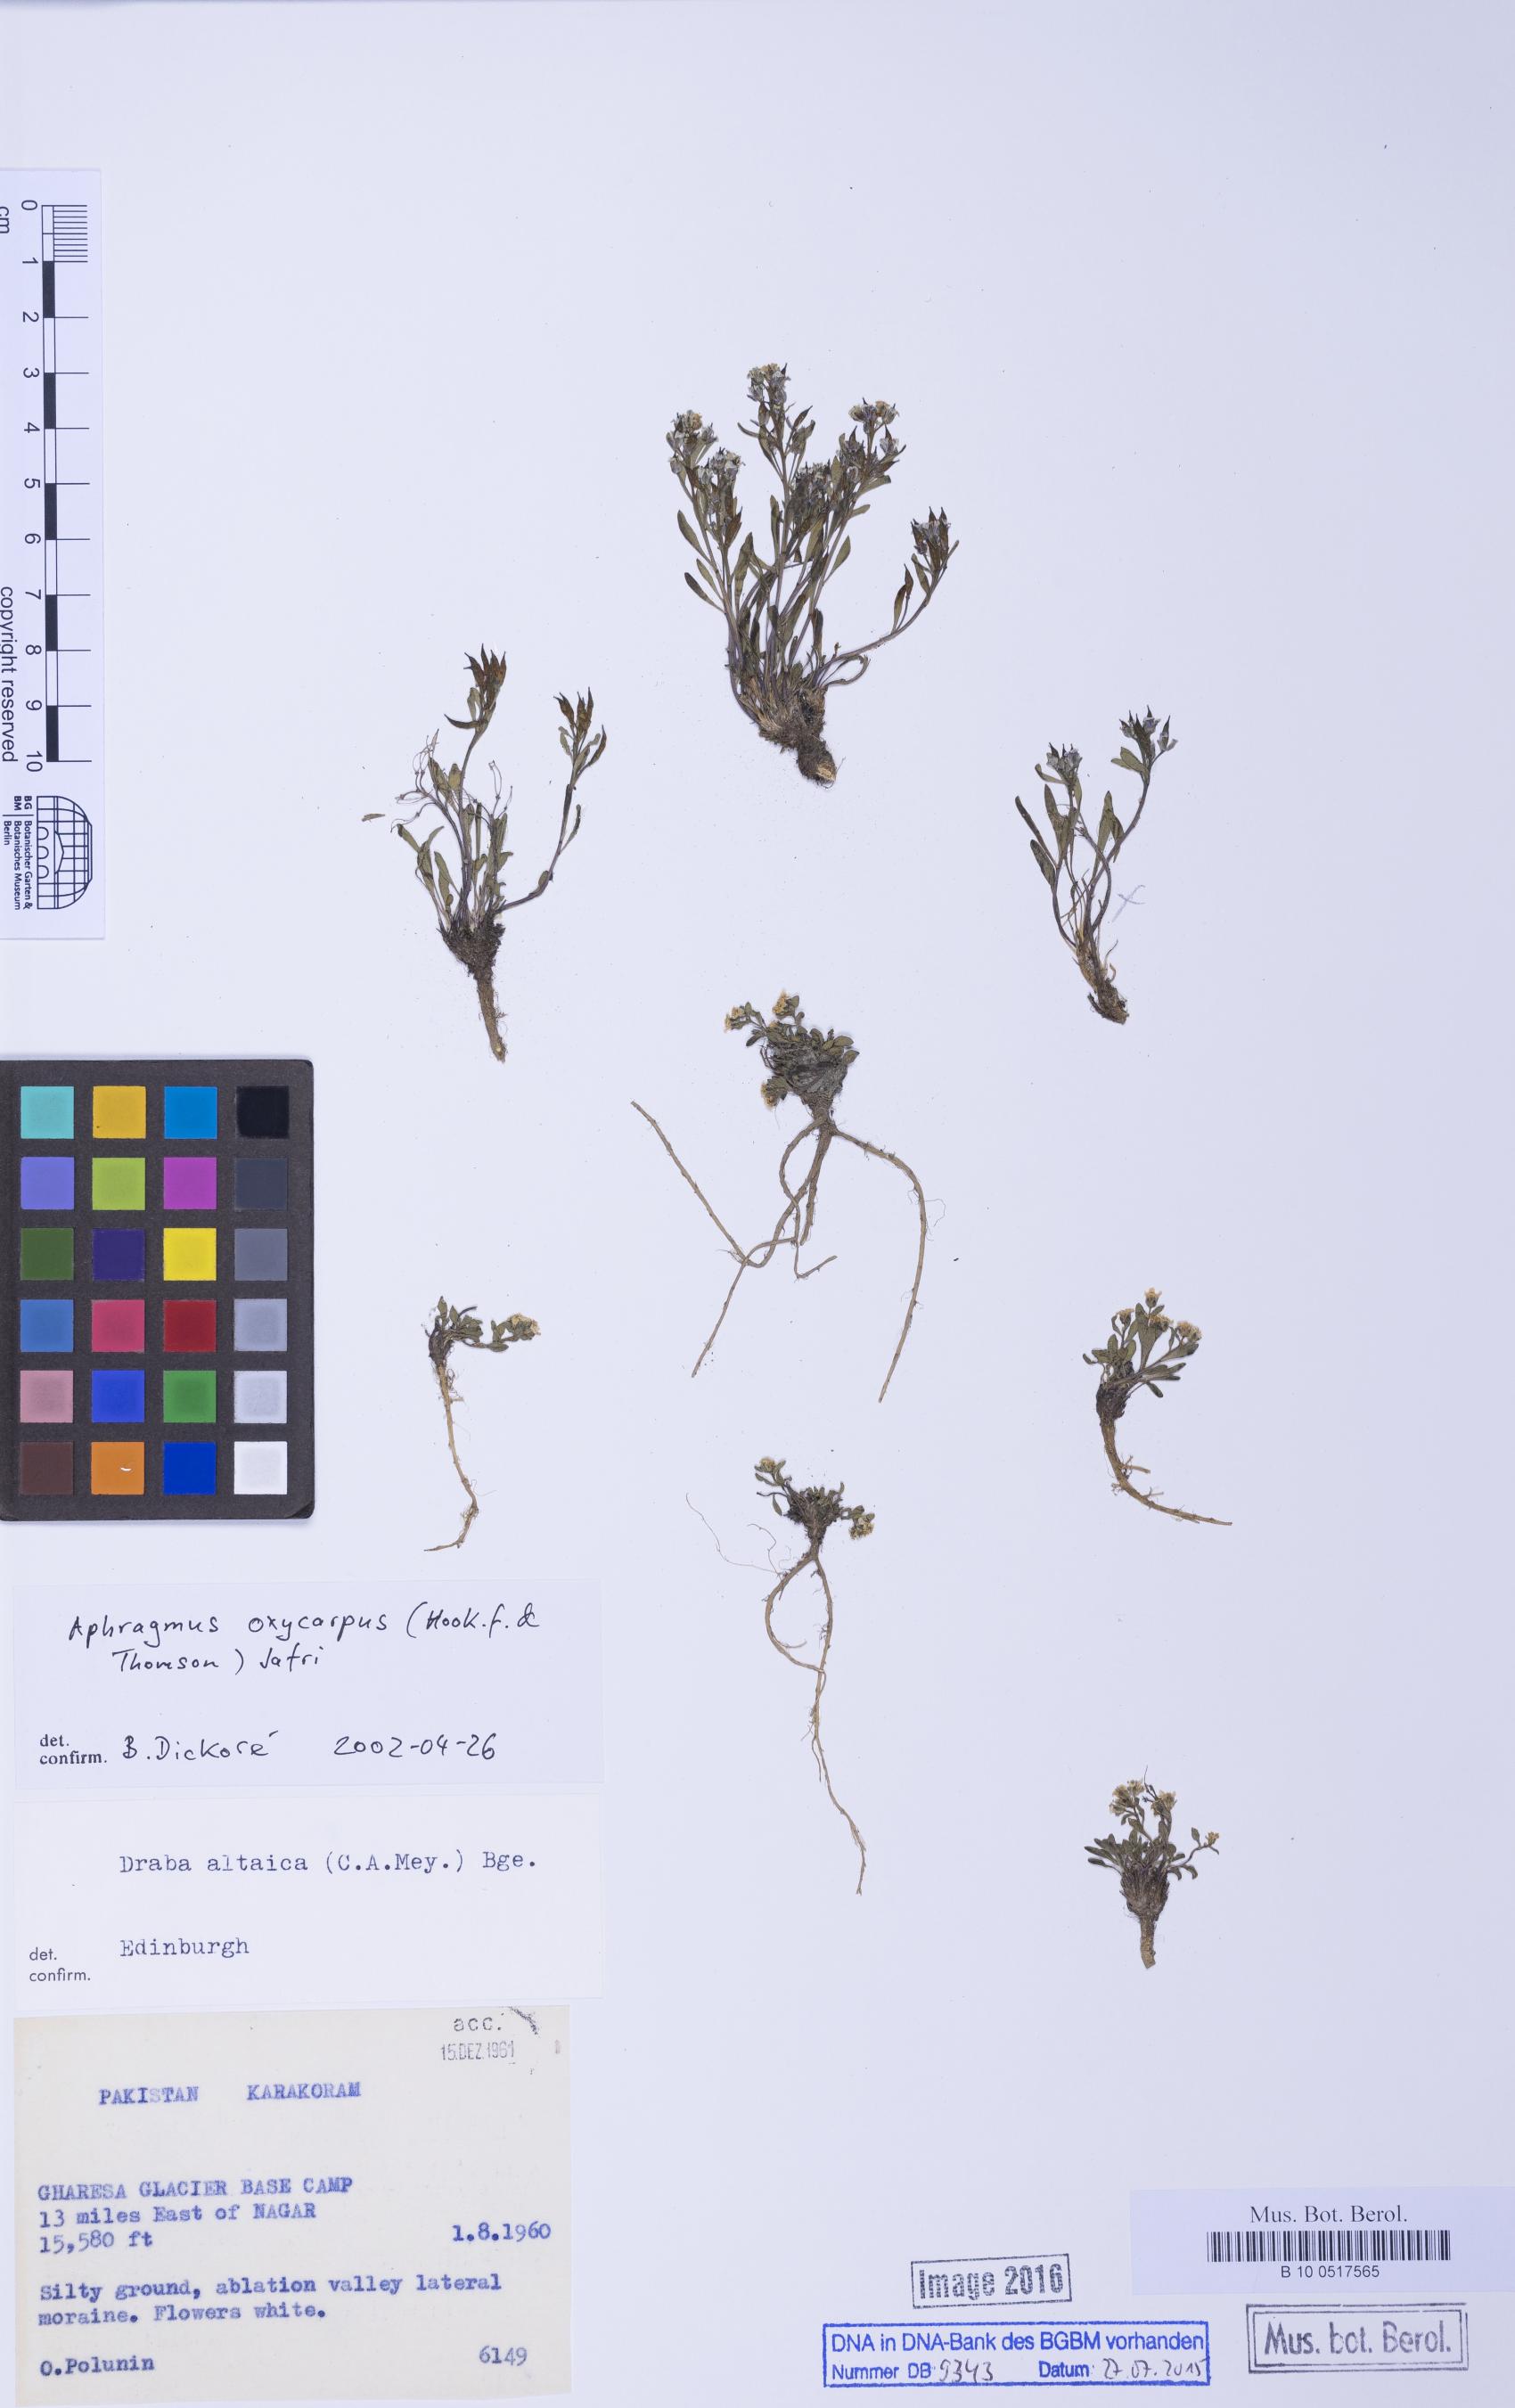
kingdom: Plantae
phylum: Tracheophyta
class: Magnoliopsida
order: Brassicales
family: Brassicaceae
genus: Aphragmus
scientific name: Aphragmus oxycarpus
